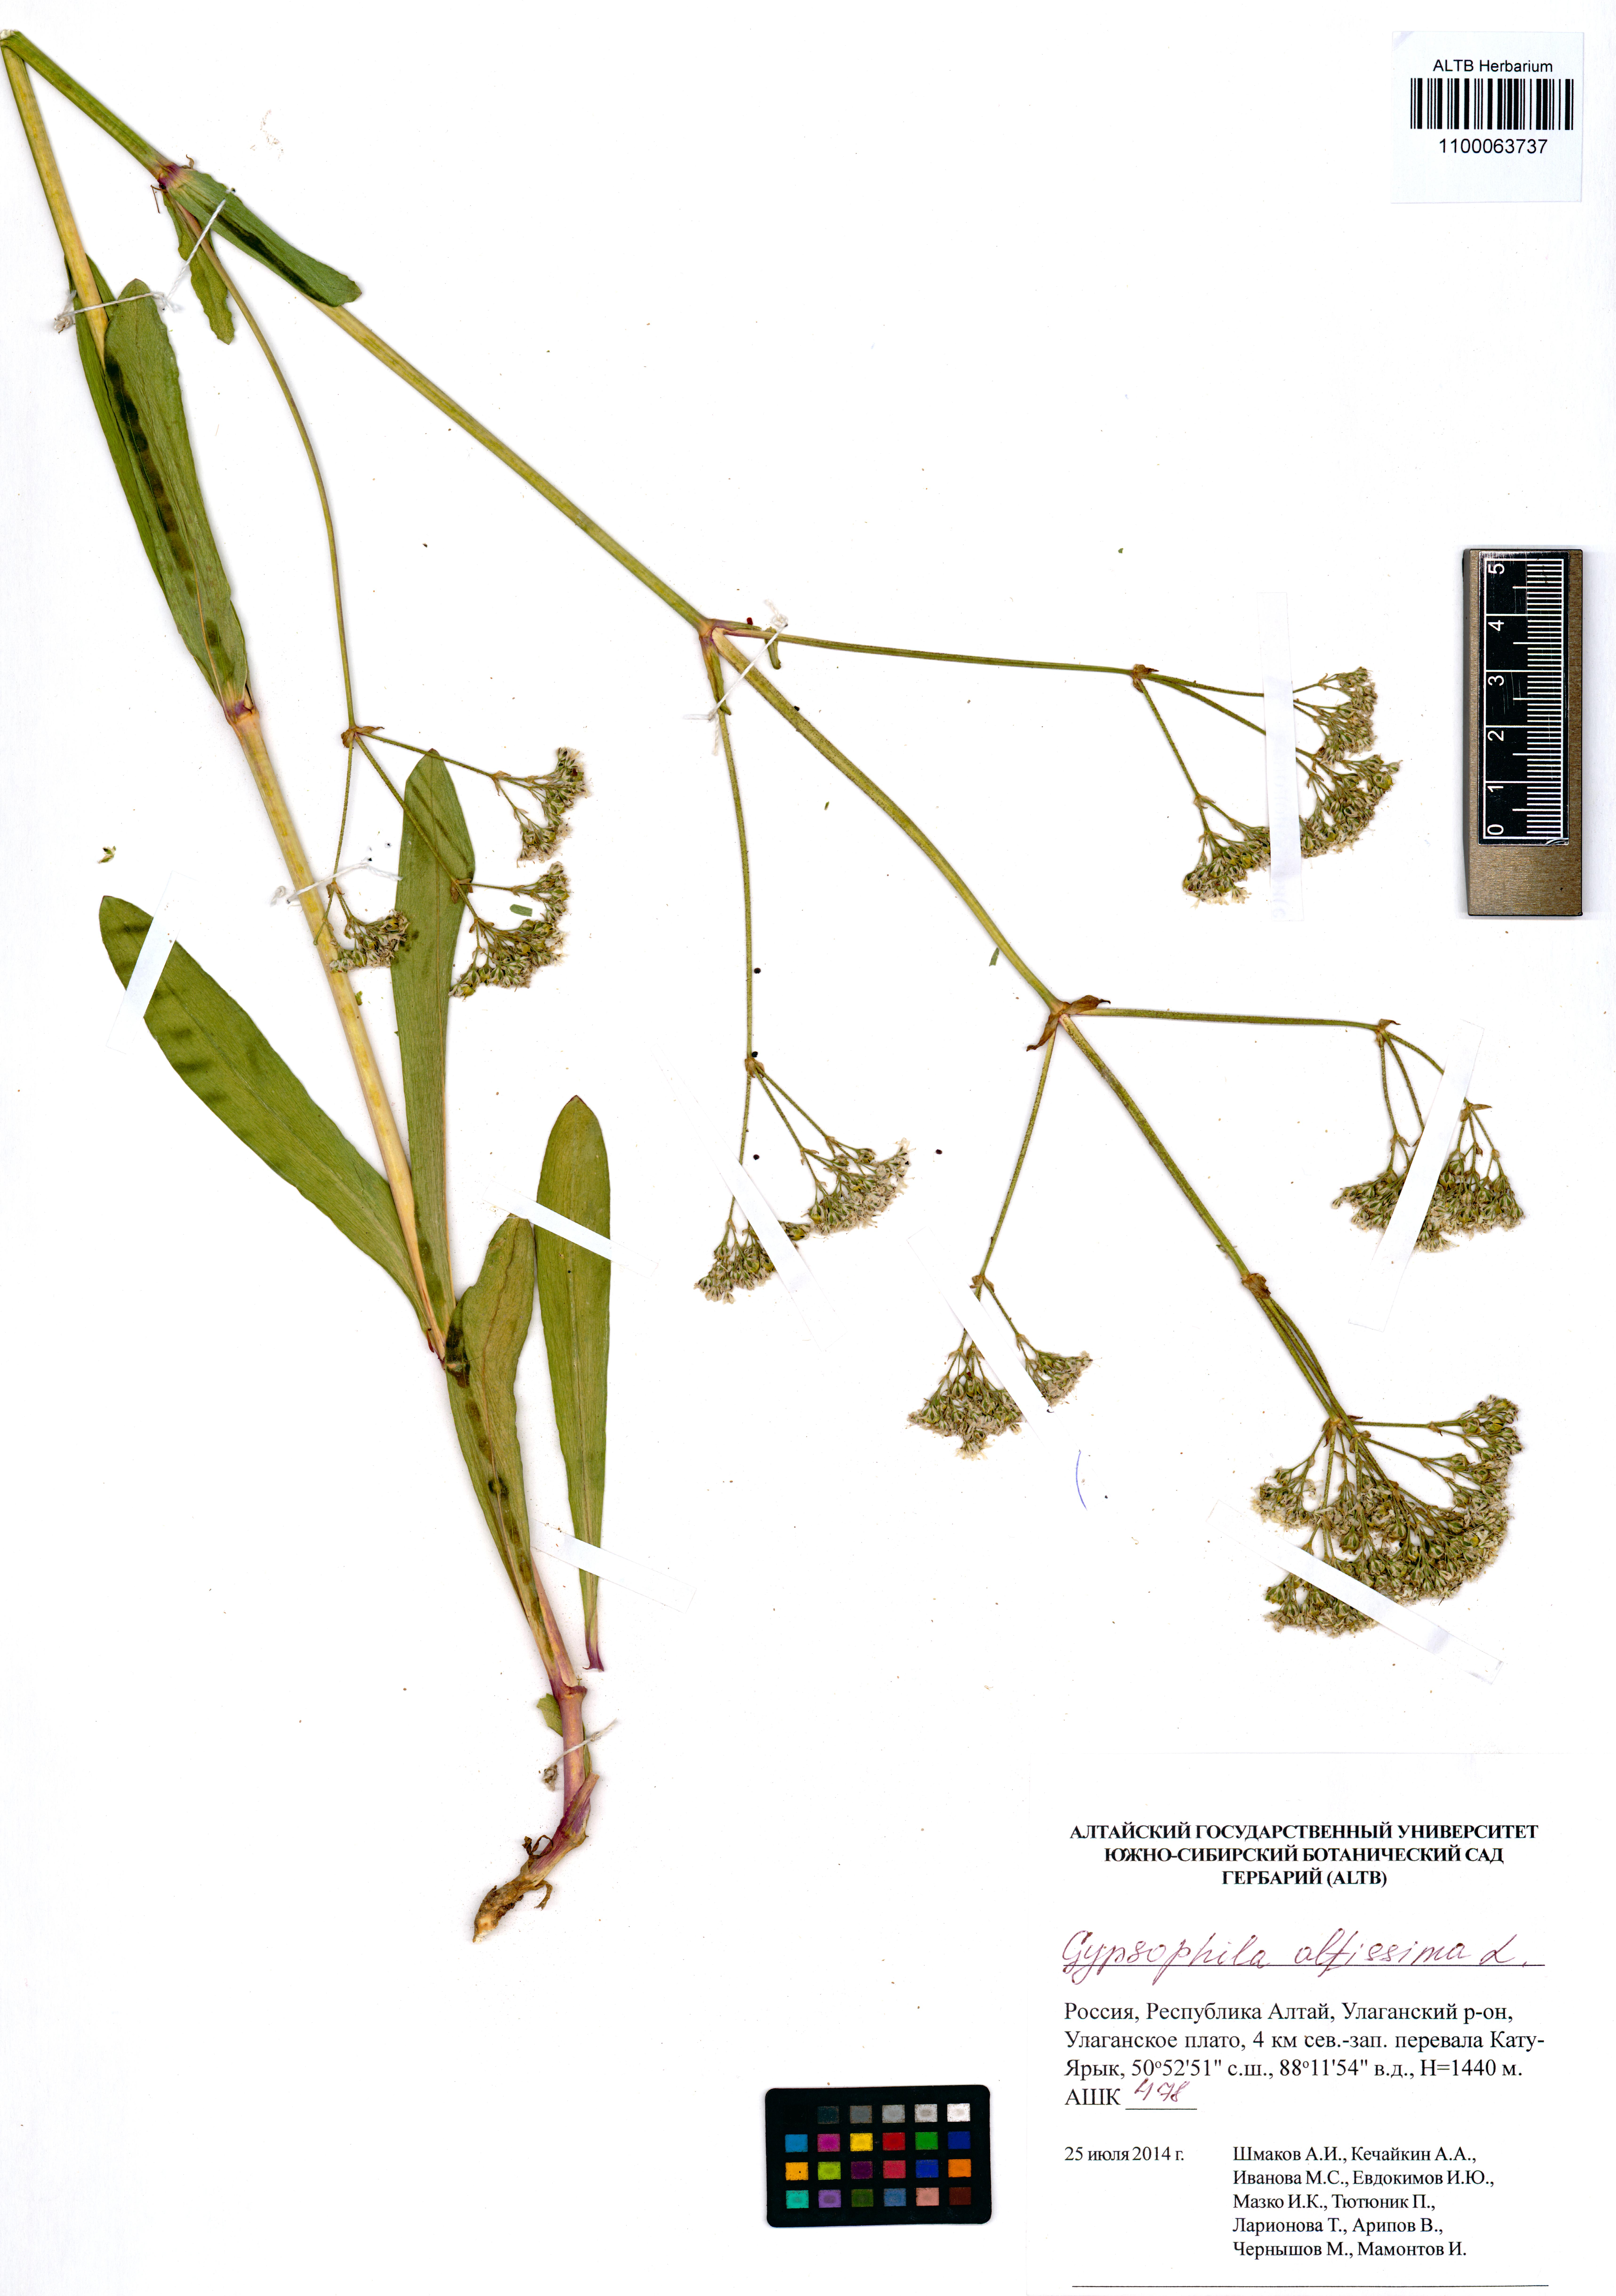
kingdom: Plantae
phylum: Tracheophyta
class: Magnoliopsida
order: Caryophyllales
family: Caryophyllaceae
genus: Gypsophila
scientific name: Gypsophila altissima
